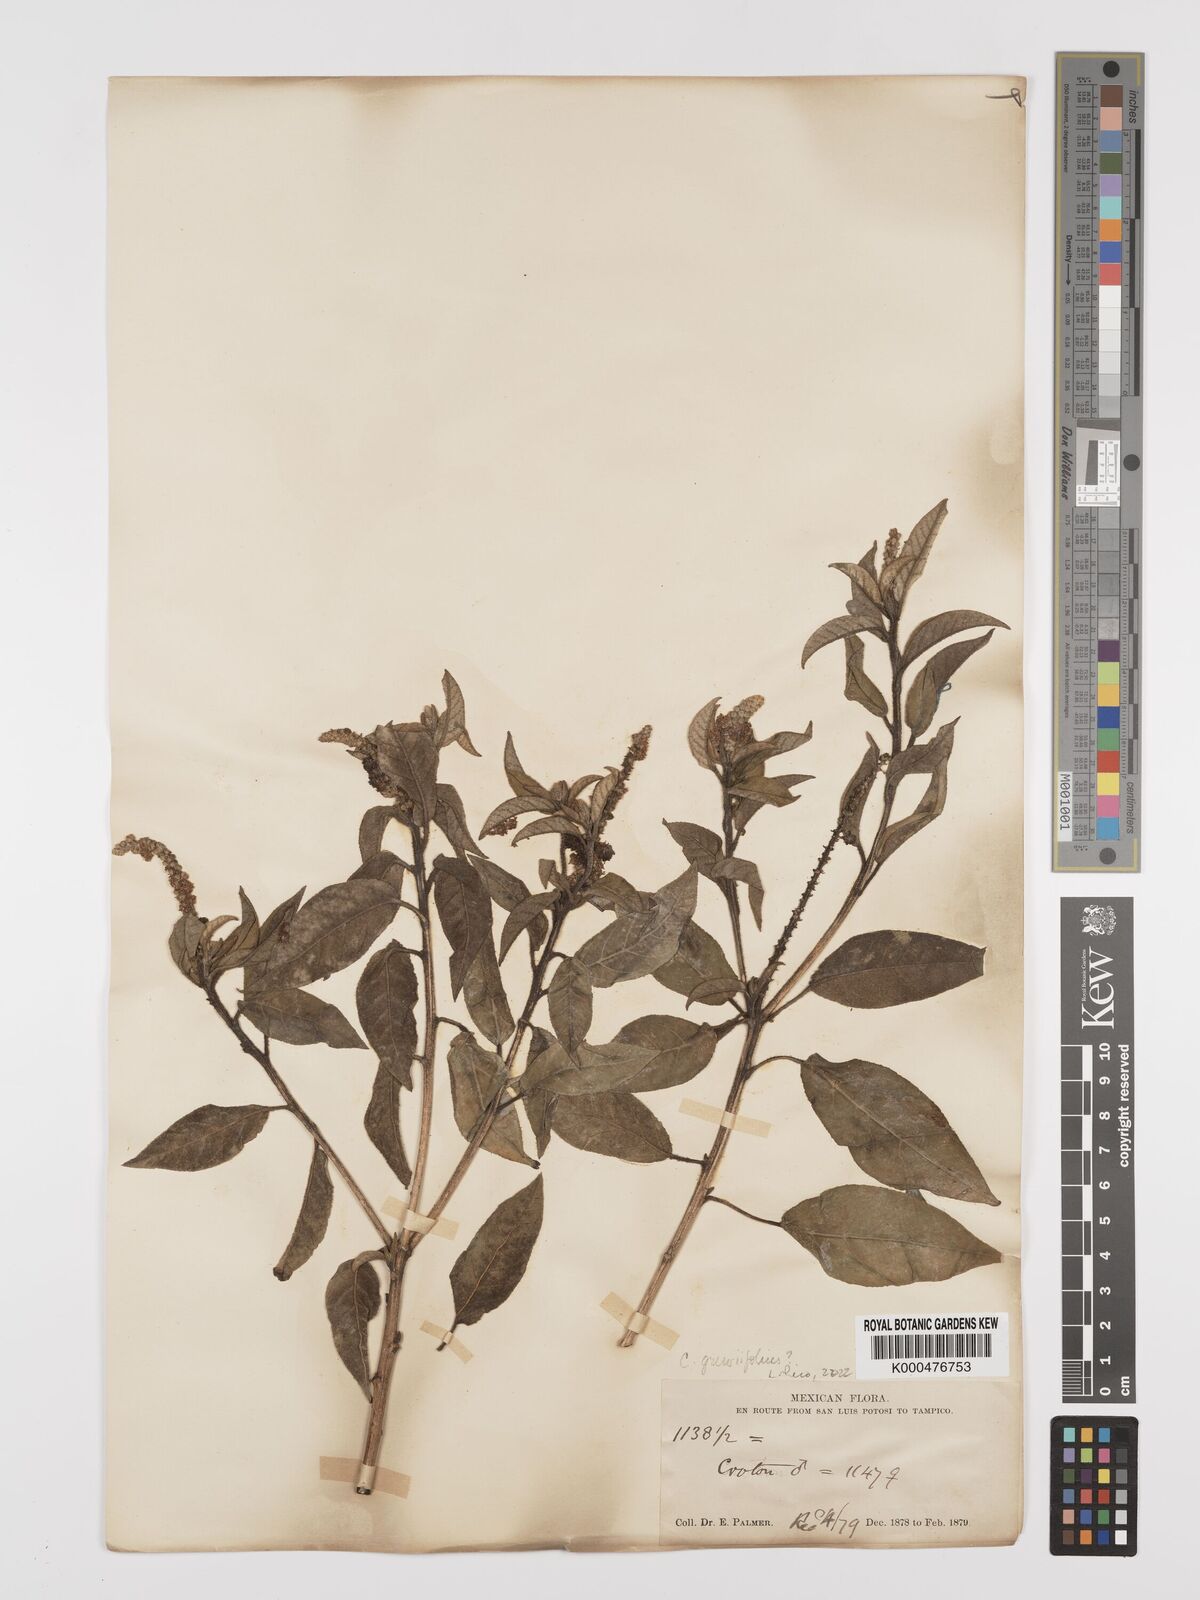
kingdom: Plantae
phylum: Tracheophyta
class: Magnoliopsida
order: Malpighiales
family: Euphorbiaceae
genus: Croton
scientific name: Croton
